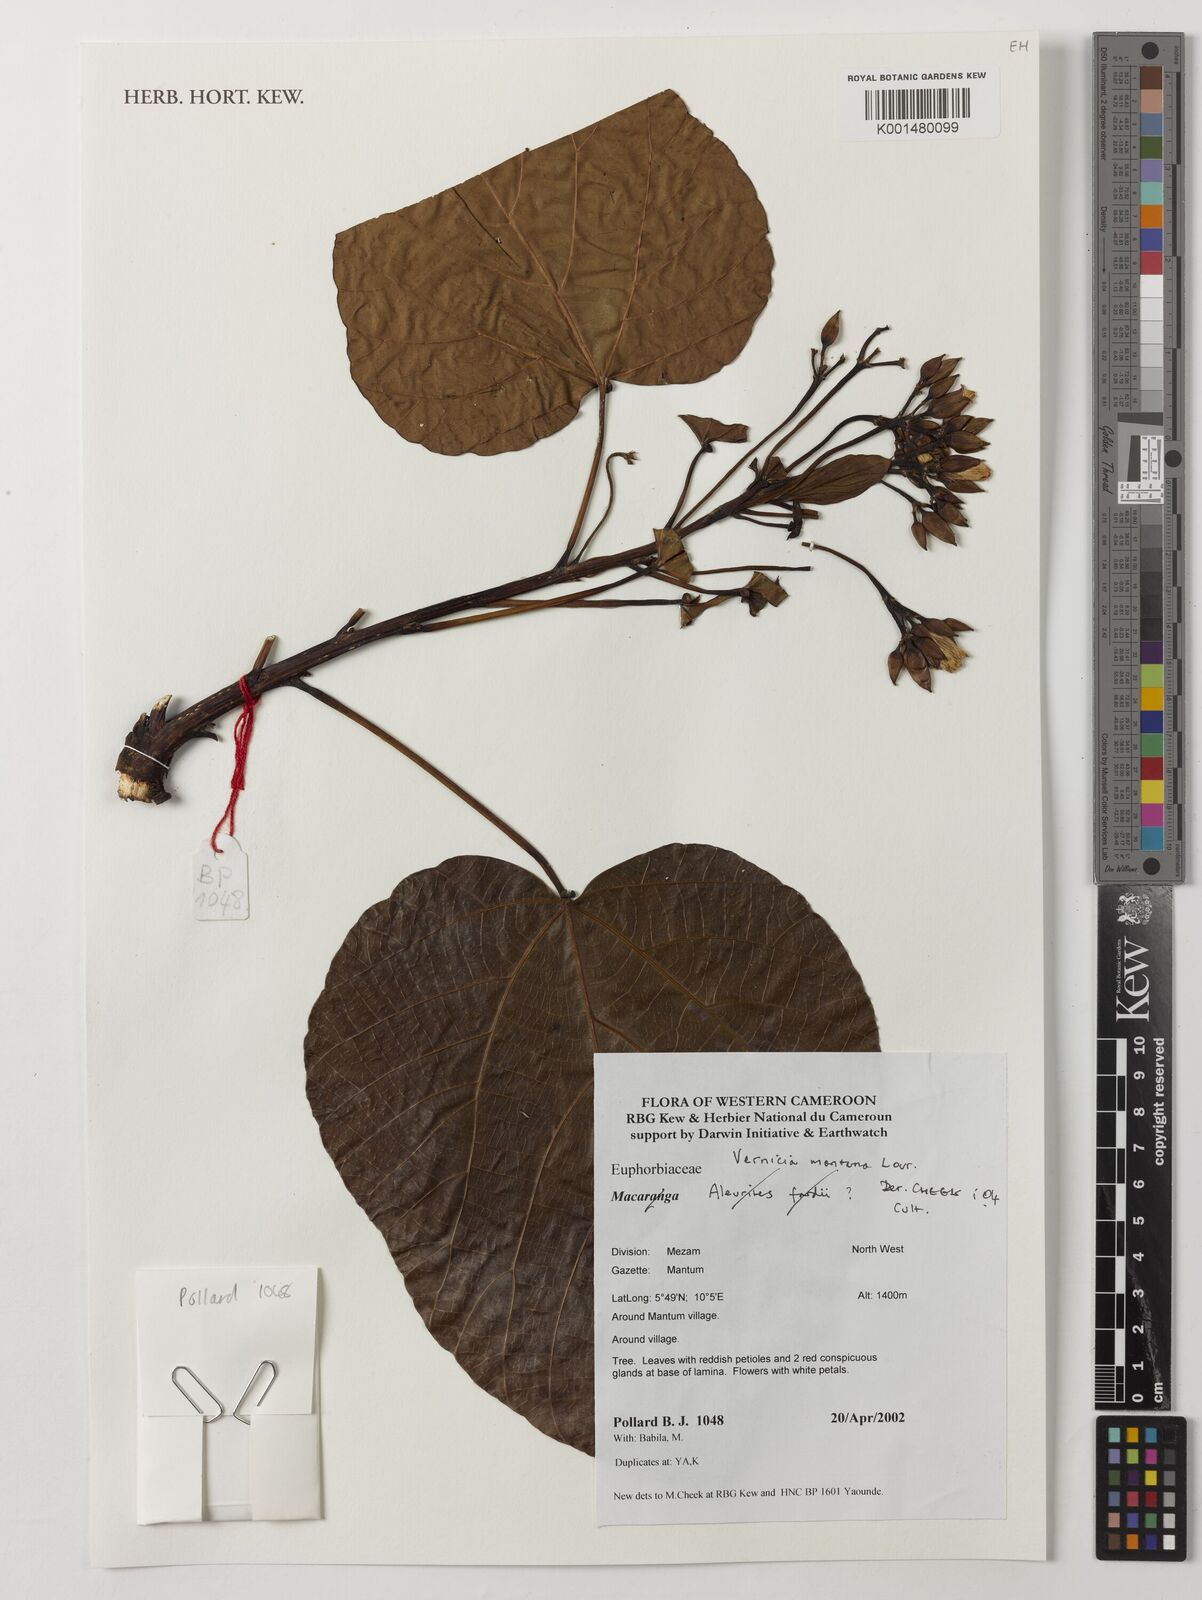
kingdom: Plantae
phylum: Tracheophyta
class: Magnoliopsida
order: Malpighiales
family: Euphorbiaceae
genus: Vernicia
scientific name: Vernicia montana
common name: Mu oil tree
